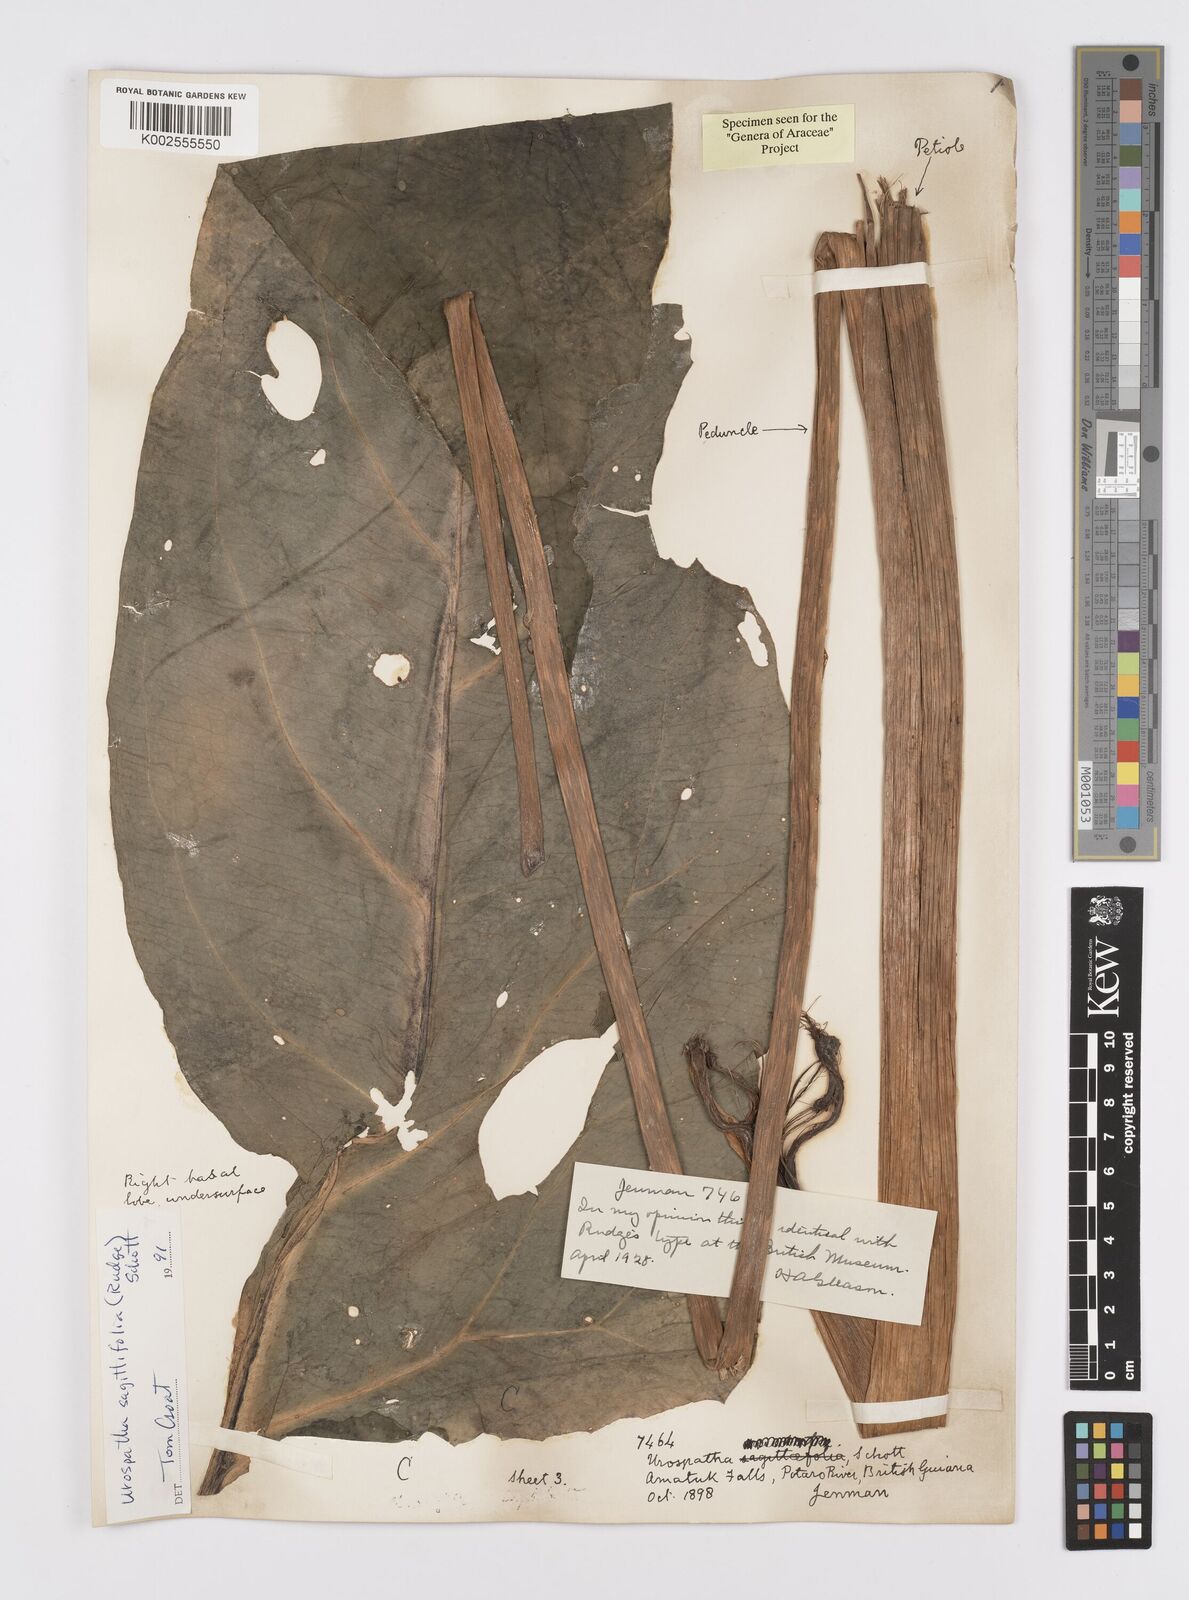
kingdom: Plantae
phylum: Tracheophyta
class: Liliopsida
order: Alismatales
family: Araceae
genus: Urospatha
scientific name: Urospatha sagittifolia
